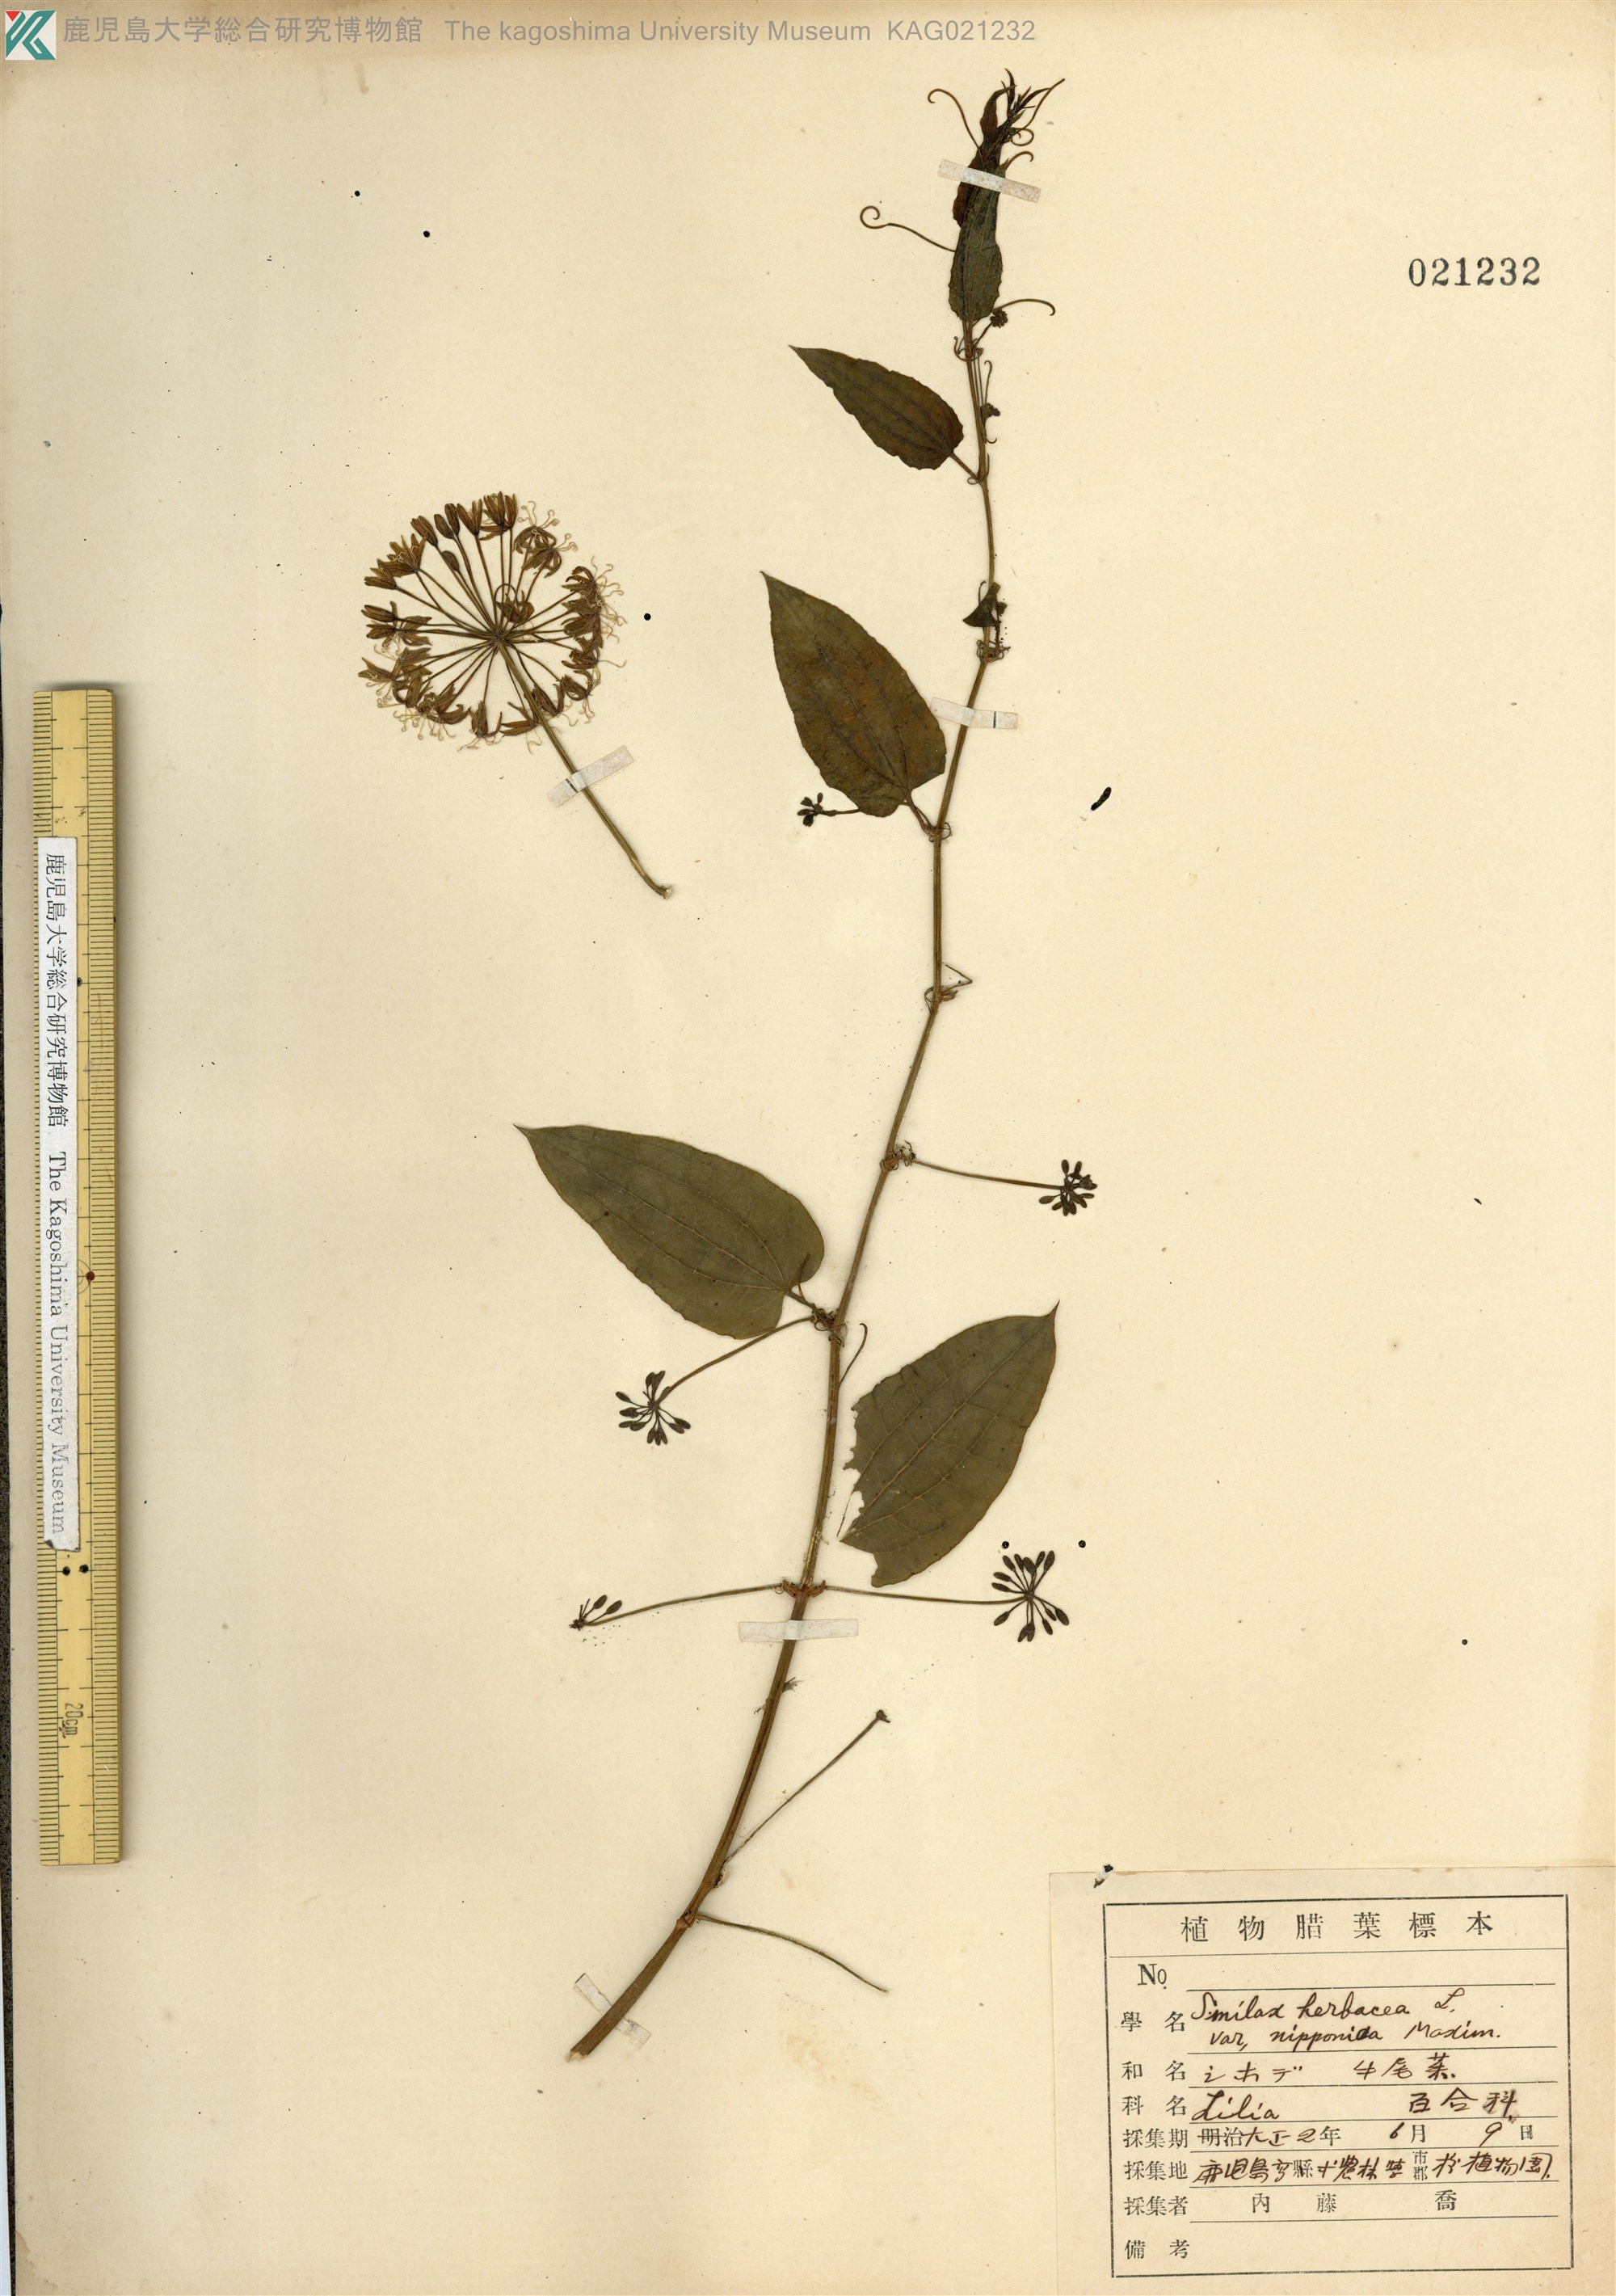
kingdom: Plantae
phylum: Tracheophyta
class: Liliopsida
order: Liliales
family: Smilacaceae
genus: Smilax
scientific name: Smilax riparia
